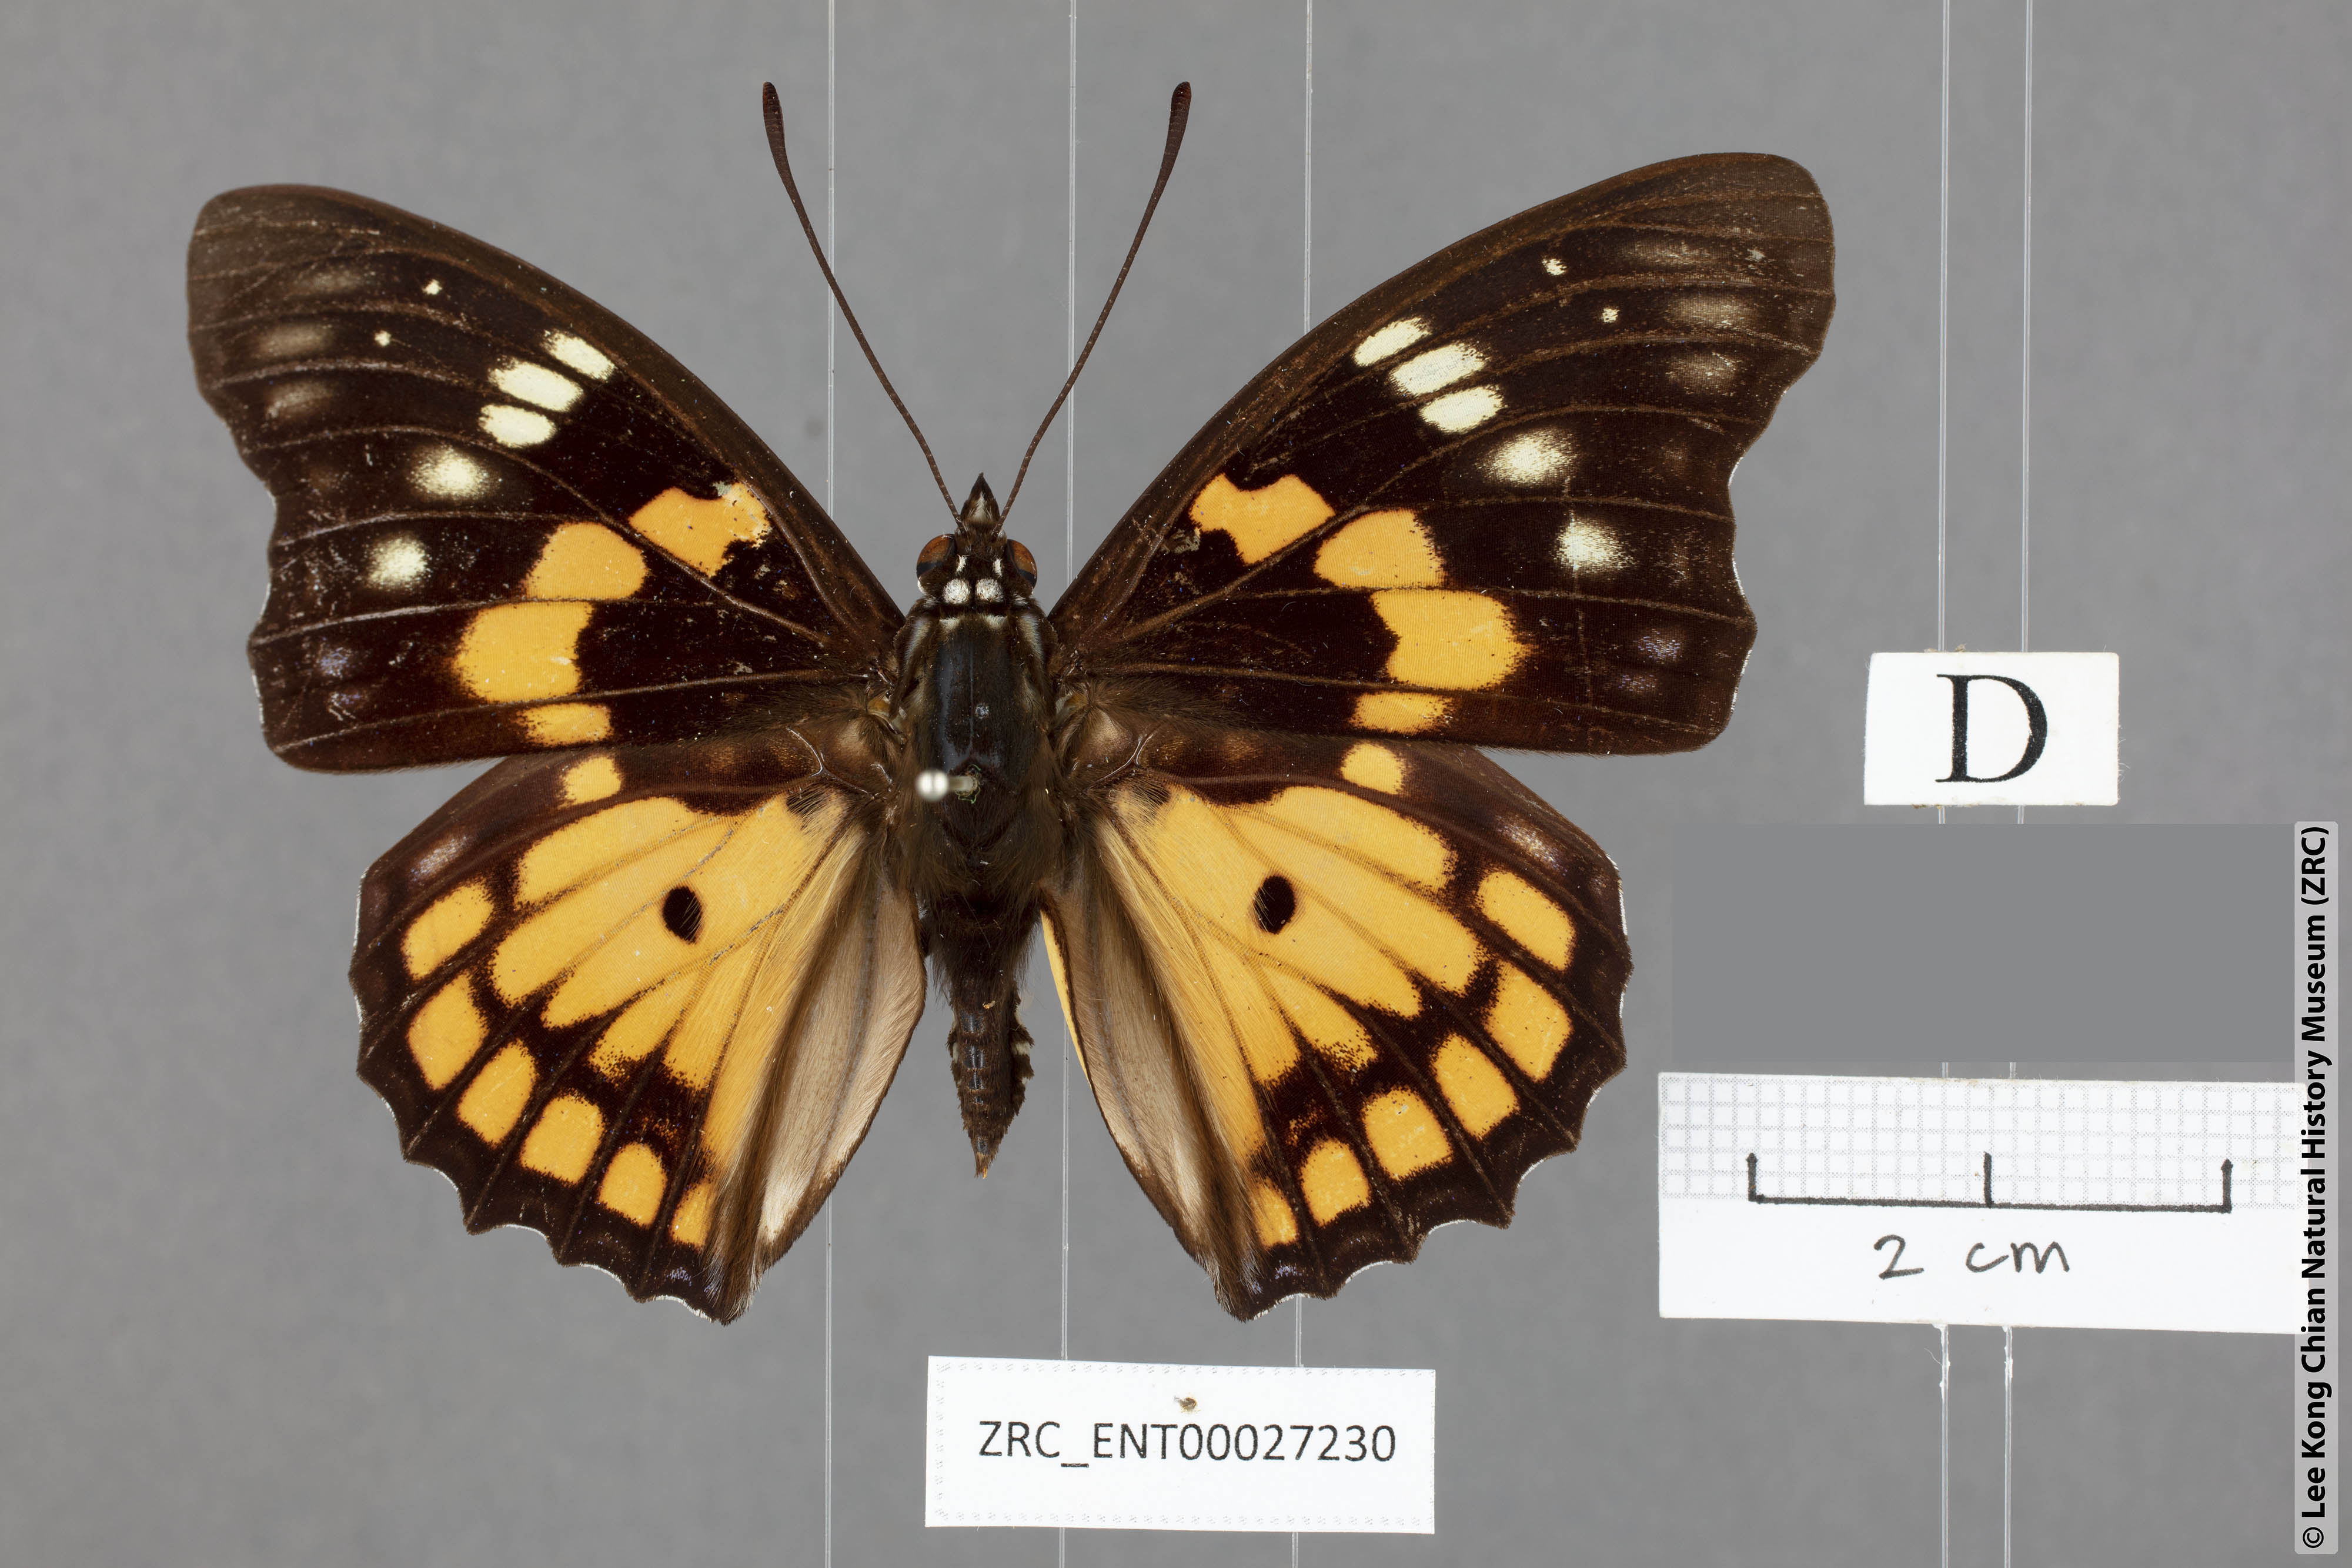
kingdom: Animalia
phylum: Arthropoda
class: Insecta
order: Lepidoptera
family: Nymphalidae
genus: Sephisa
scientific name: Sephisa chandra
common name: Eastern courtier
